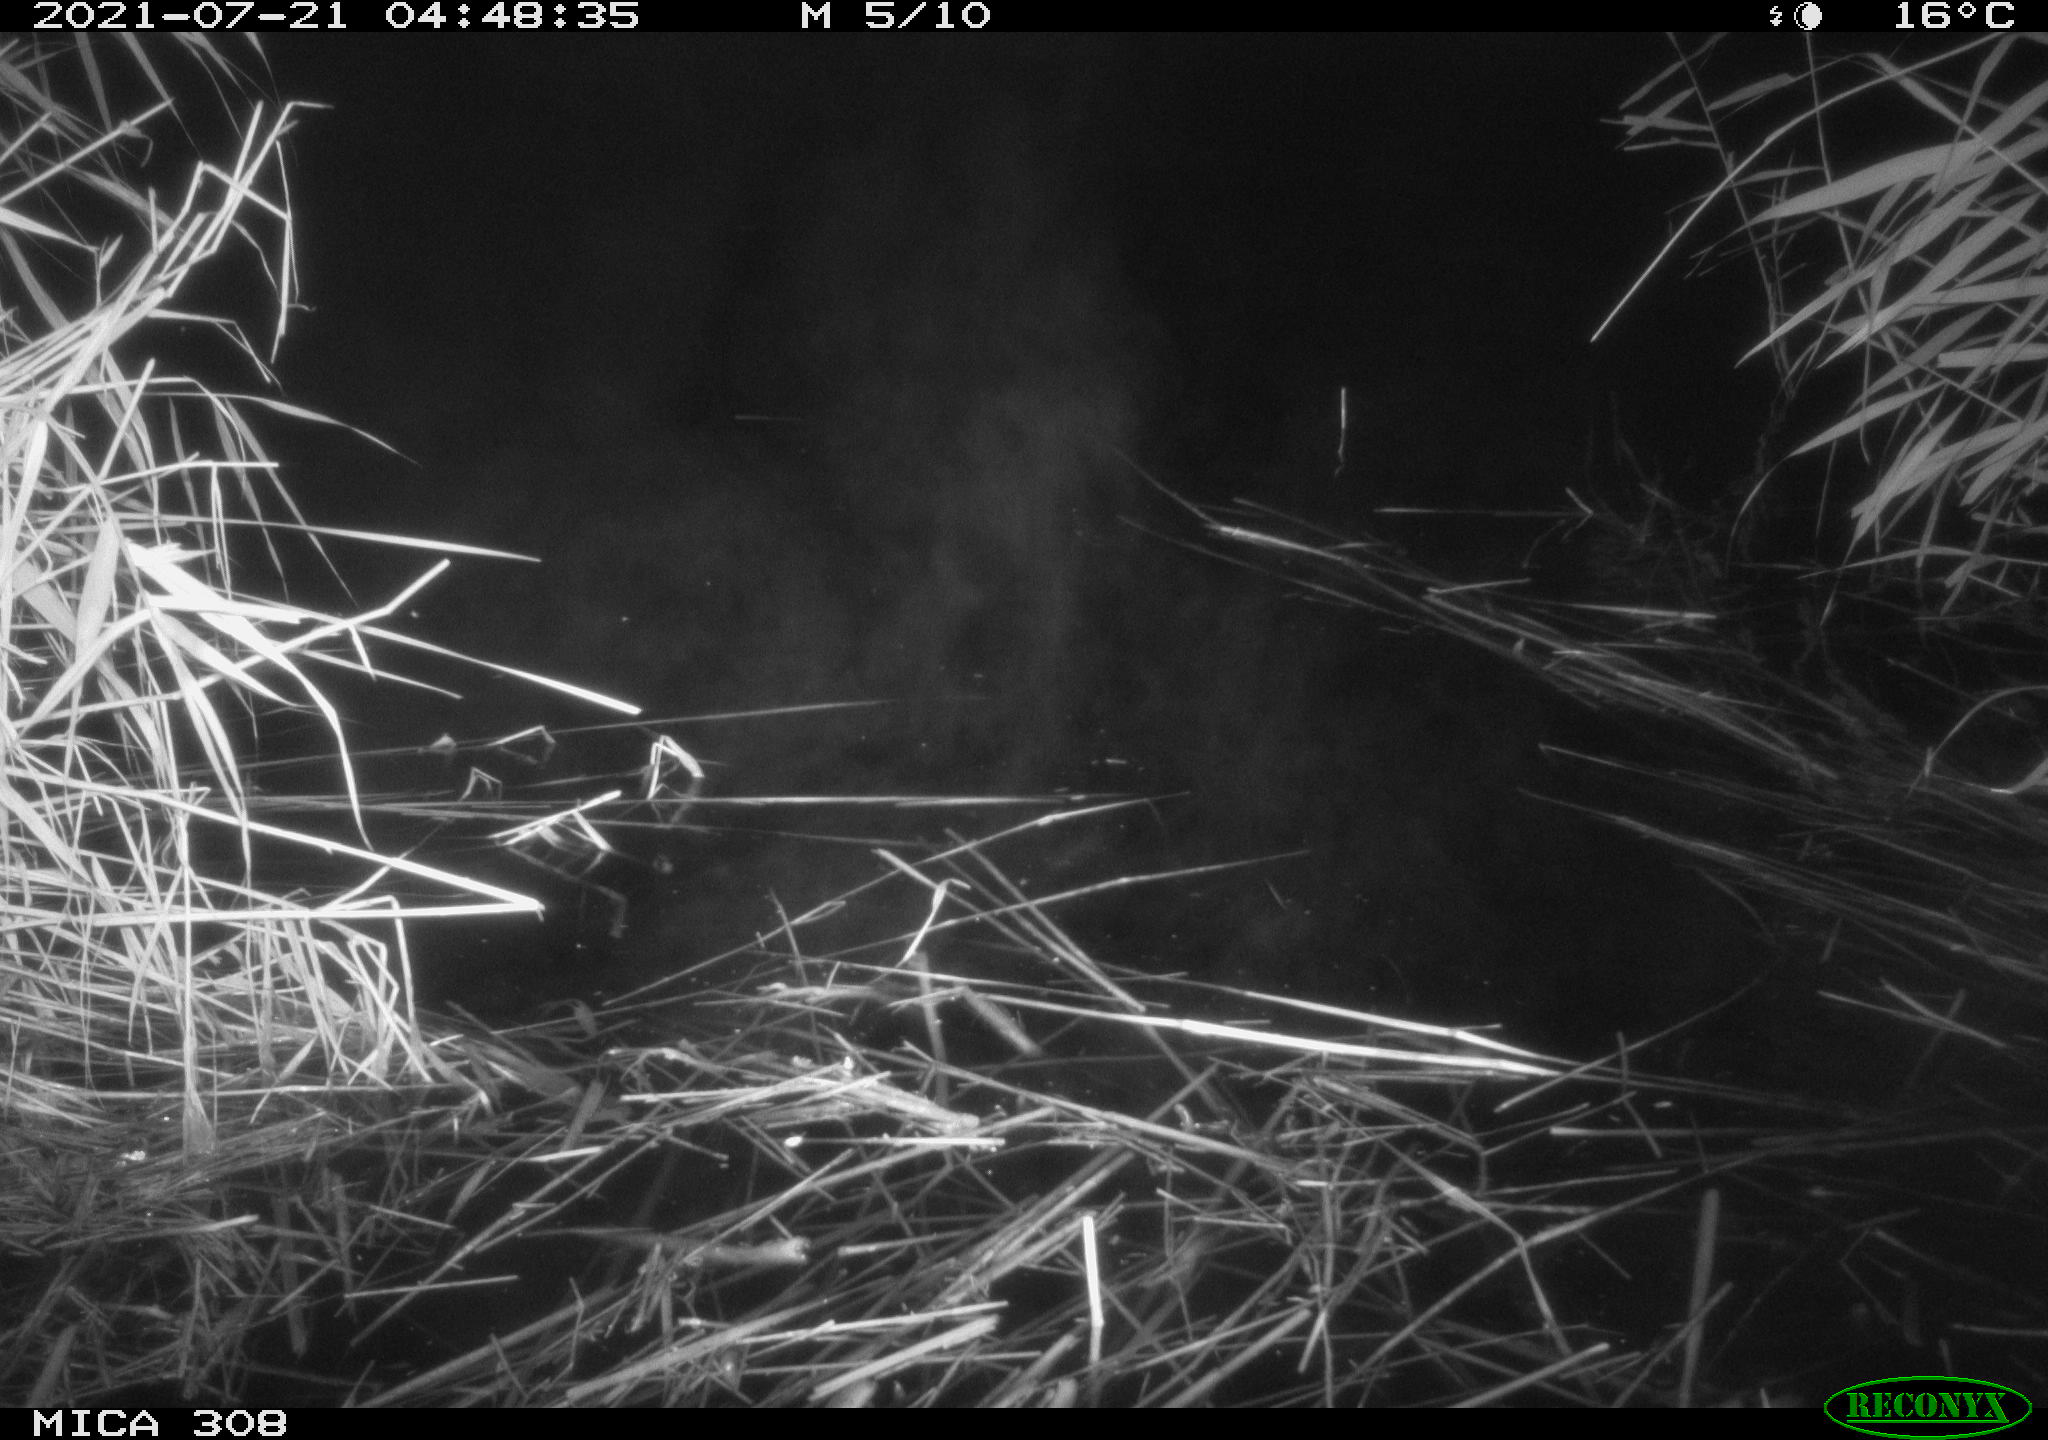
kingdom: Animalia
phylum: Chordata
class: Aves
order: Gruiformes
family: Rallidae
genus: Gallinula
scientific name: Gallinula chloropus
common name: Common moorhen
